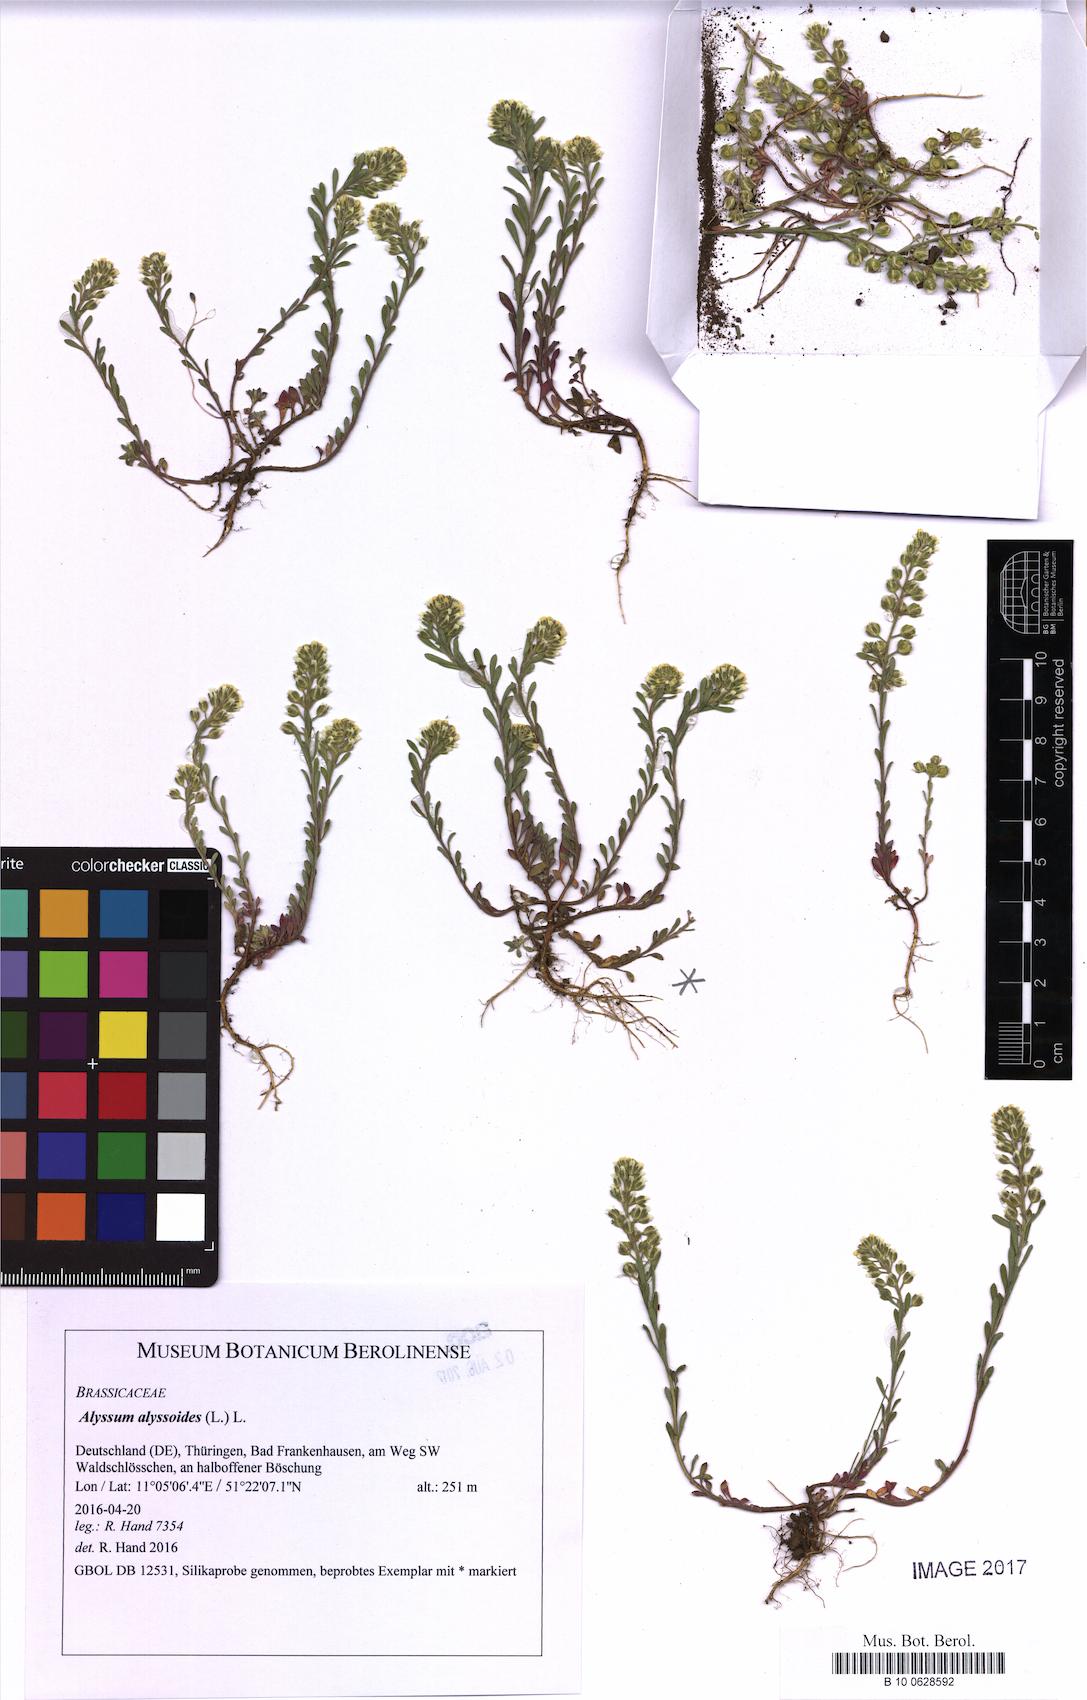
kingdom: Plantae
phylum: Tracheophyta
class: Magnoliopsida
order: Brassicales
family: Brassicaceae
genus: Alyssum
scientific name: Alyssum alyssoides
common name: Small alison
